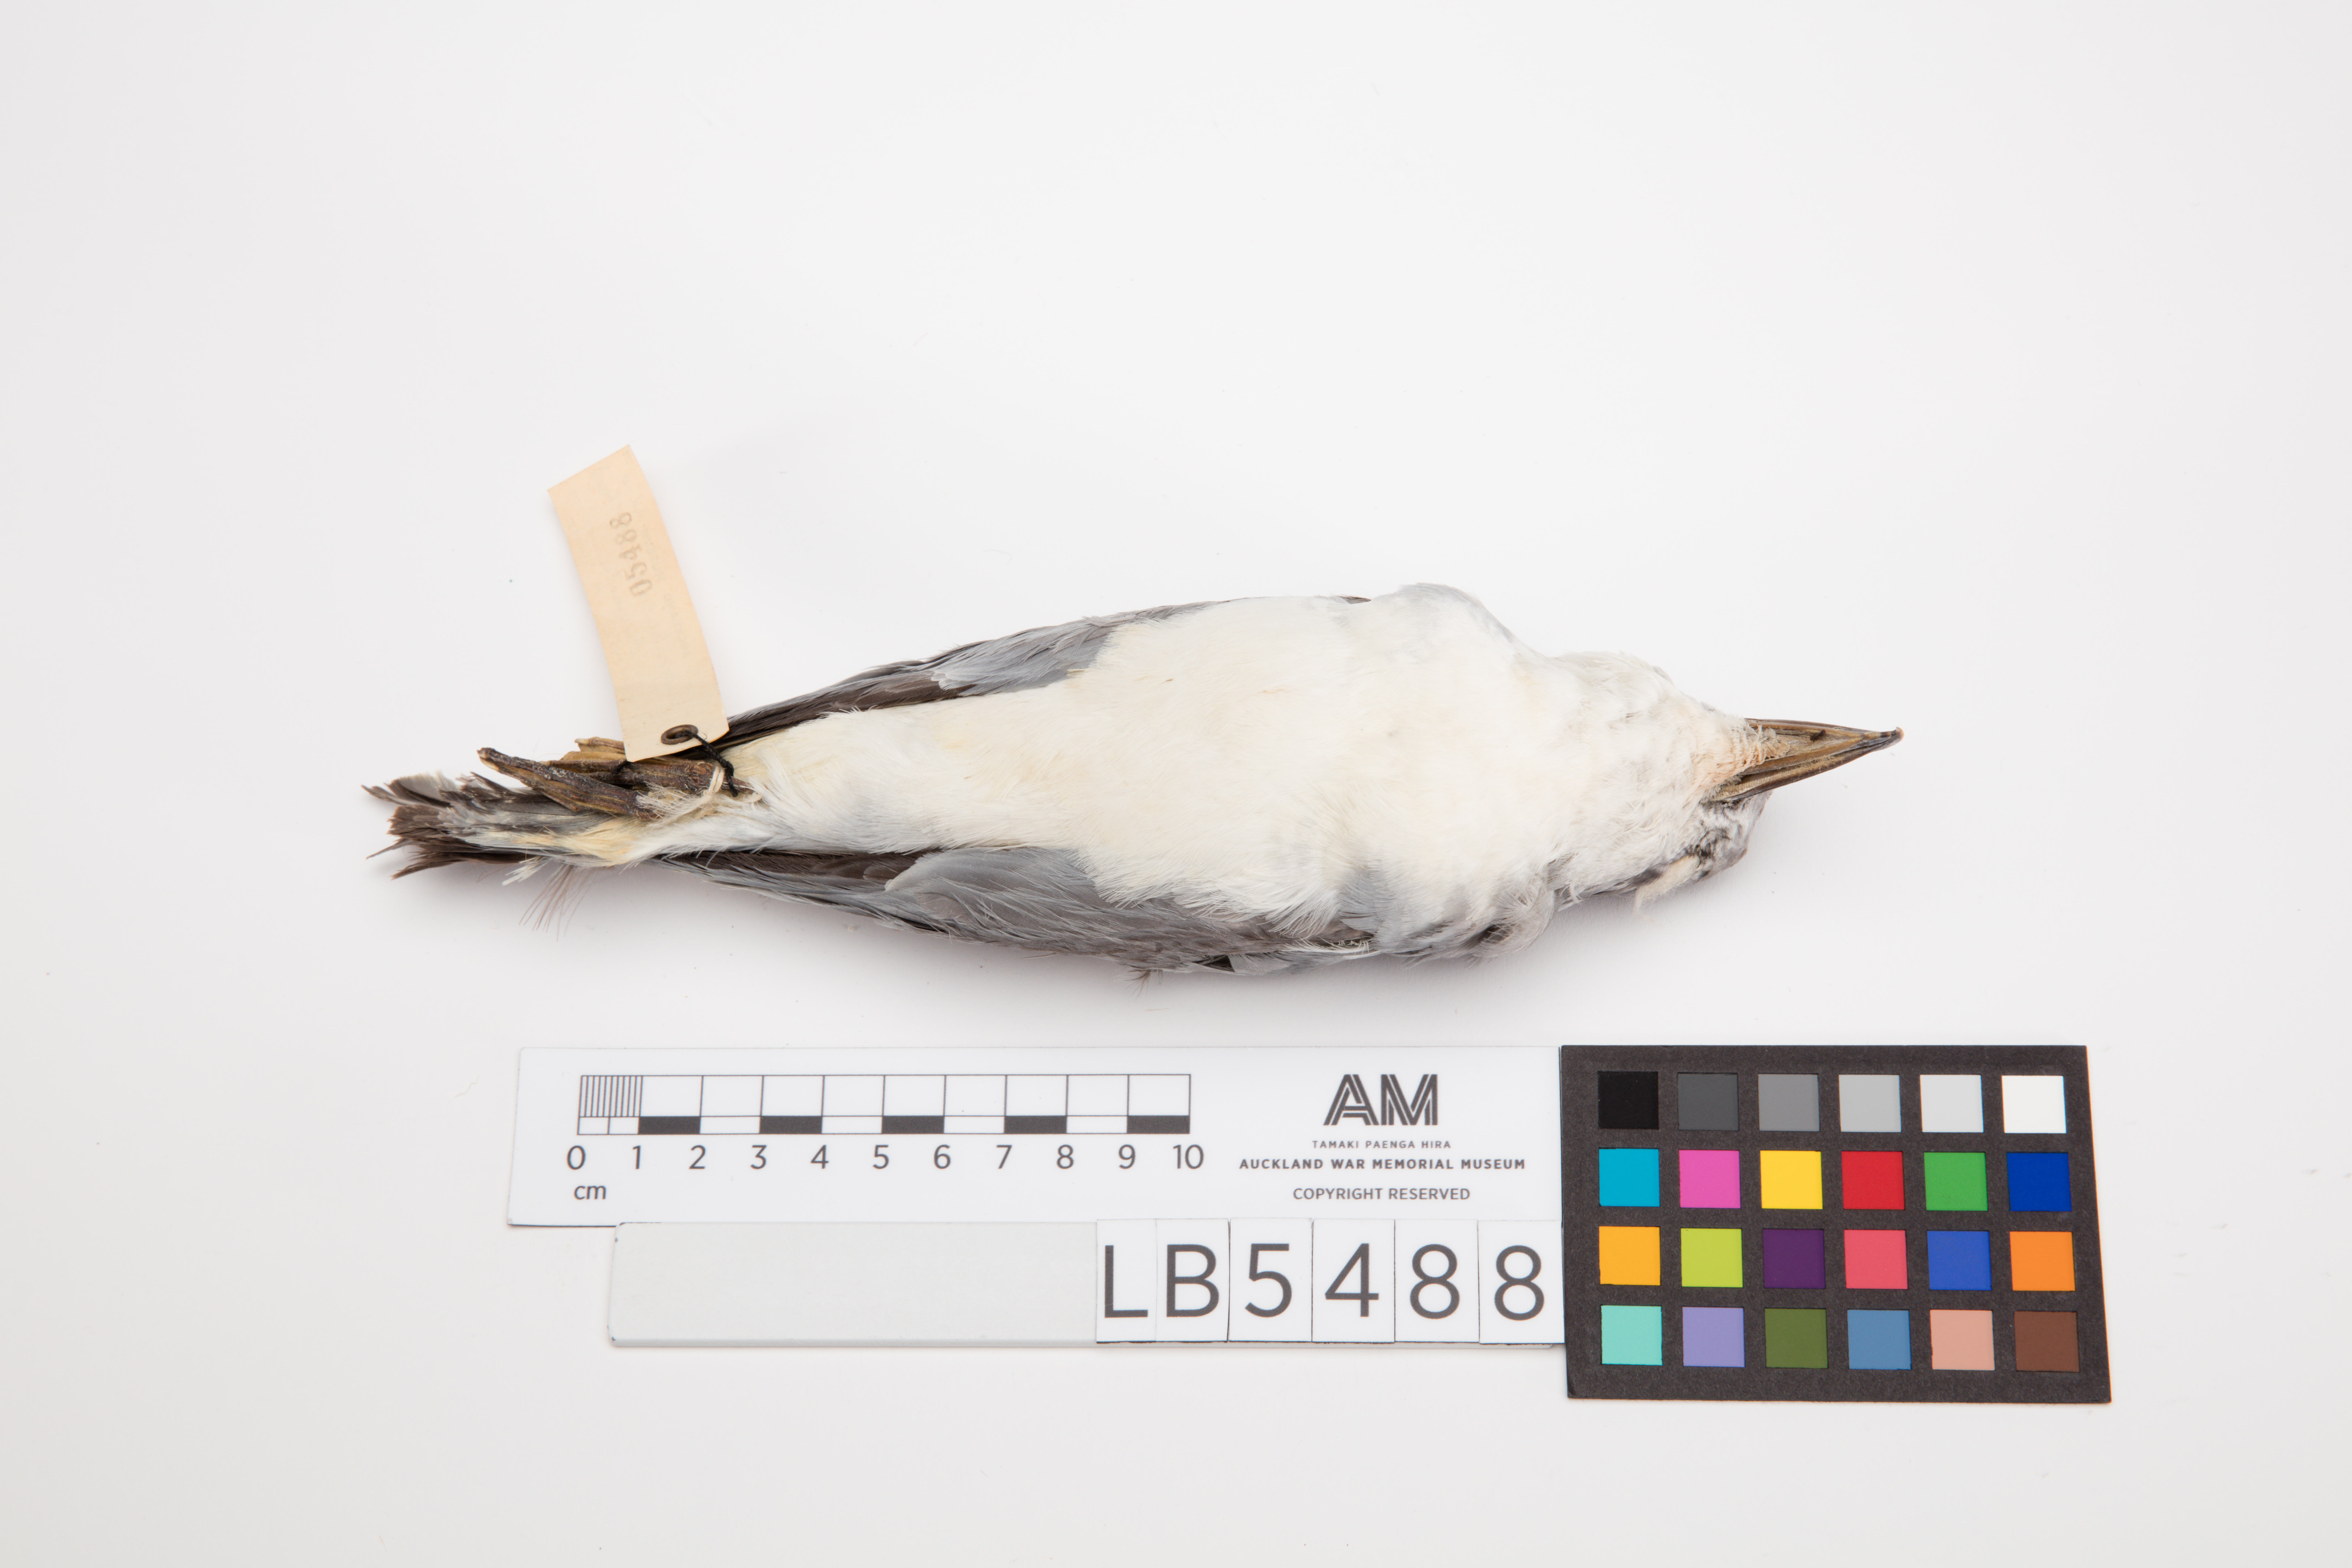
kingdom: Animalia
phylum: Chordata
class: Aves
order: Procellariiformes
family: Procellariidae
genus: Pachyptila
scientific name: Pachyptila salvini
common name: Salvin's prion
